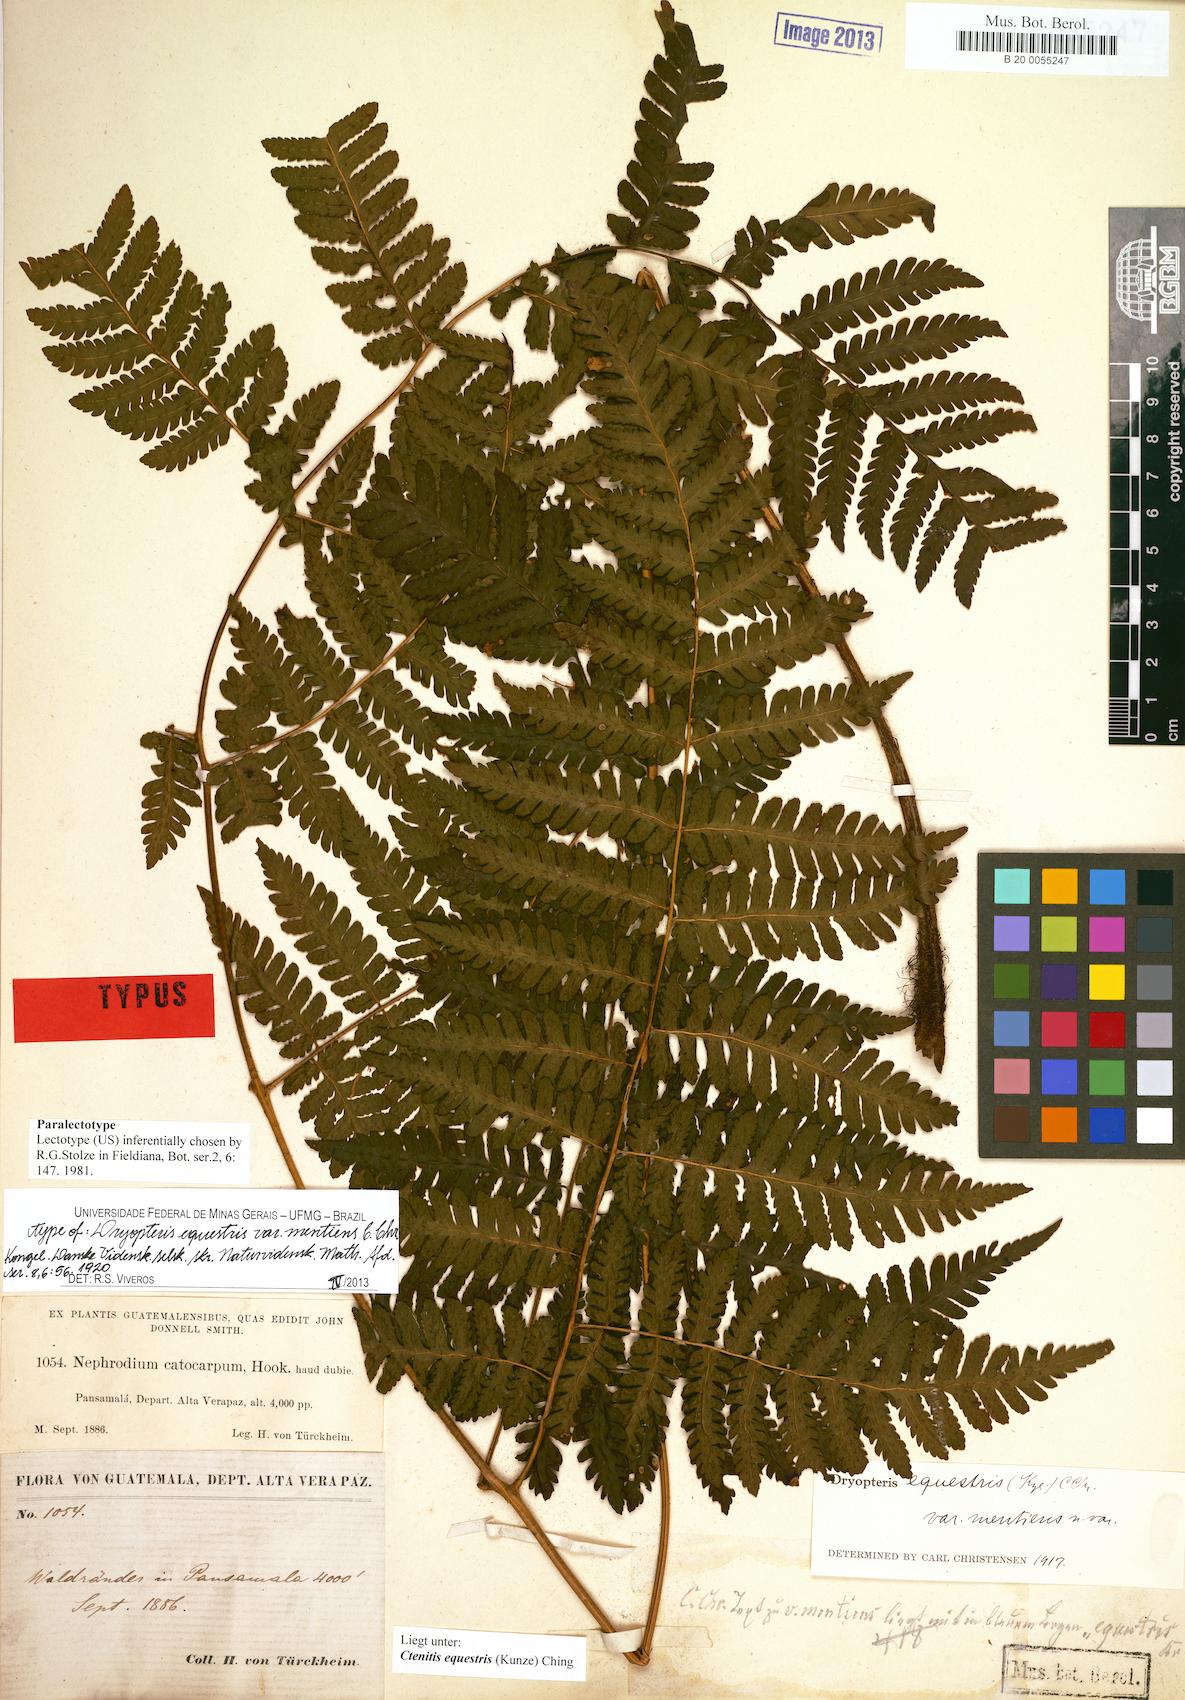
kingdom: Plantae
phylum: Tracheophyta
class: Polypodiopsida
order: Polypodiales
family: Dryopteridaceae
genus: Ctenitis
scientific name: Ctenitis equestris
